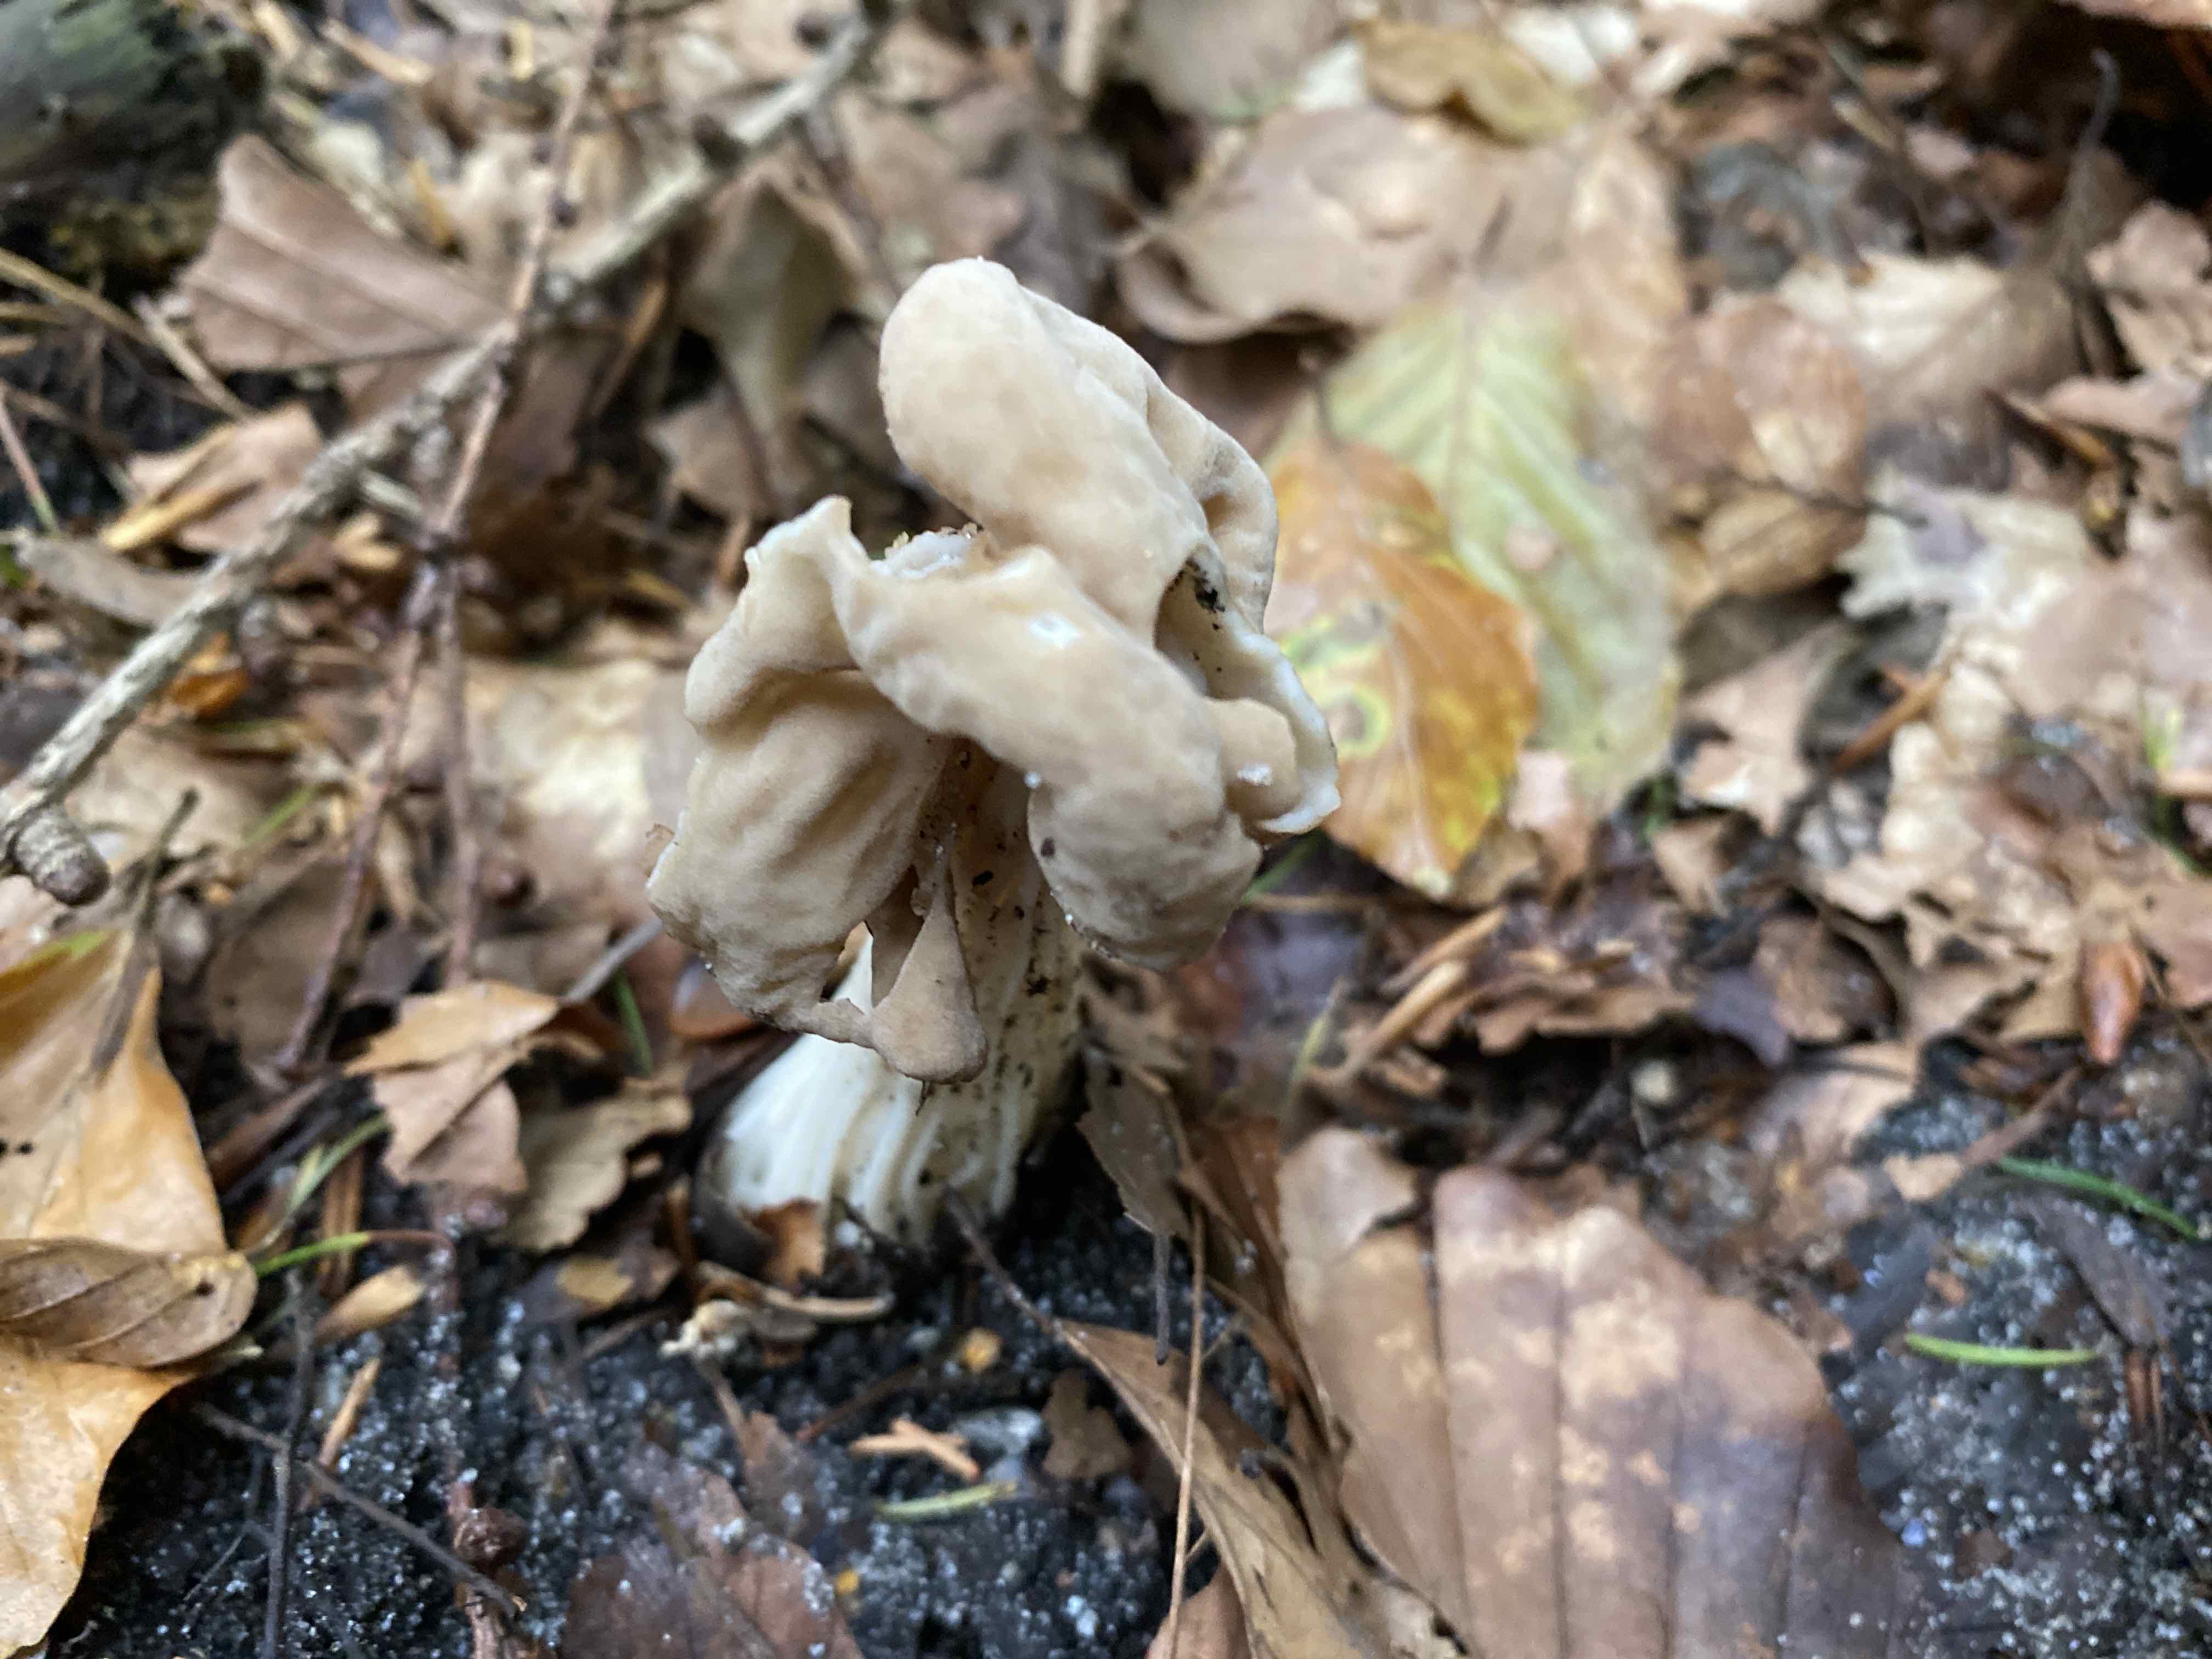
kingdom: Fungi
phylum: Ascomycota
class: Pezizomycetes
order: Pezizales
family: Helvellaceae
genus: Helvella
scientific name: Helvella crispa
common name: kruset foldhat
